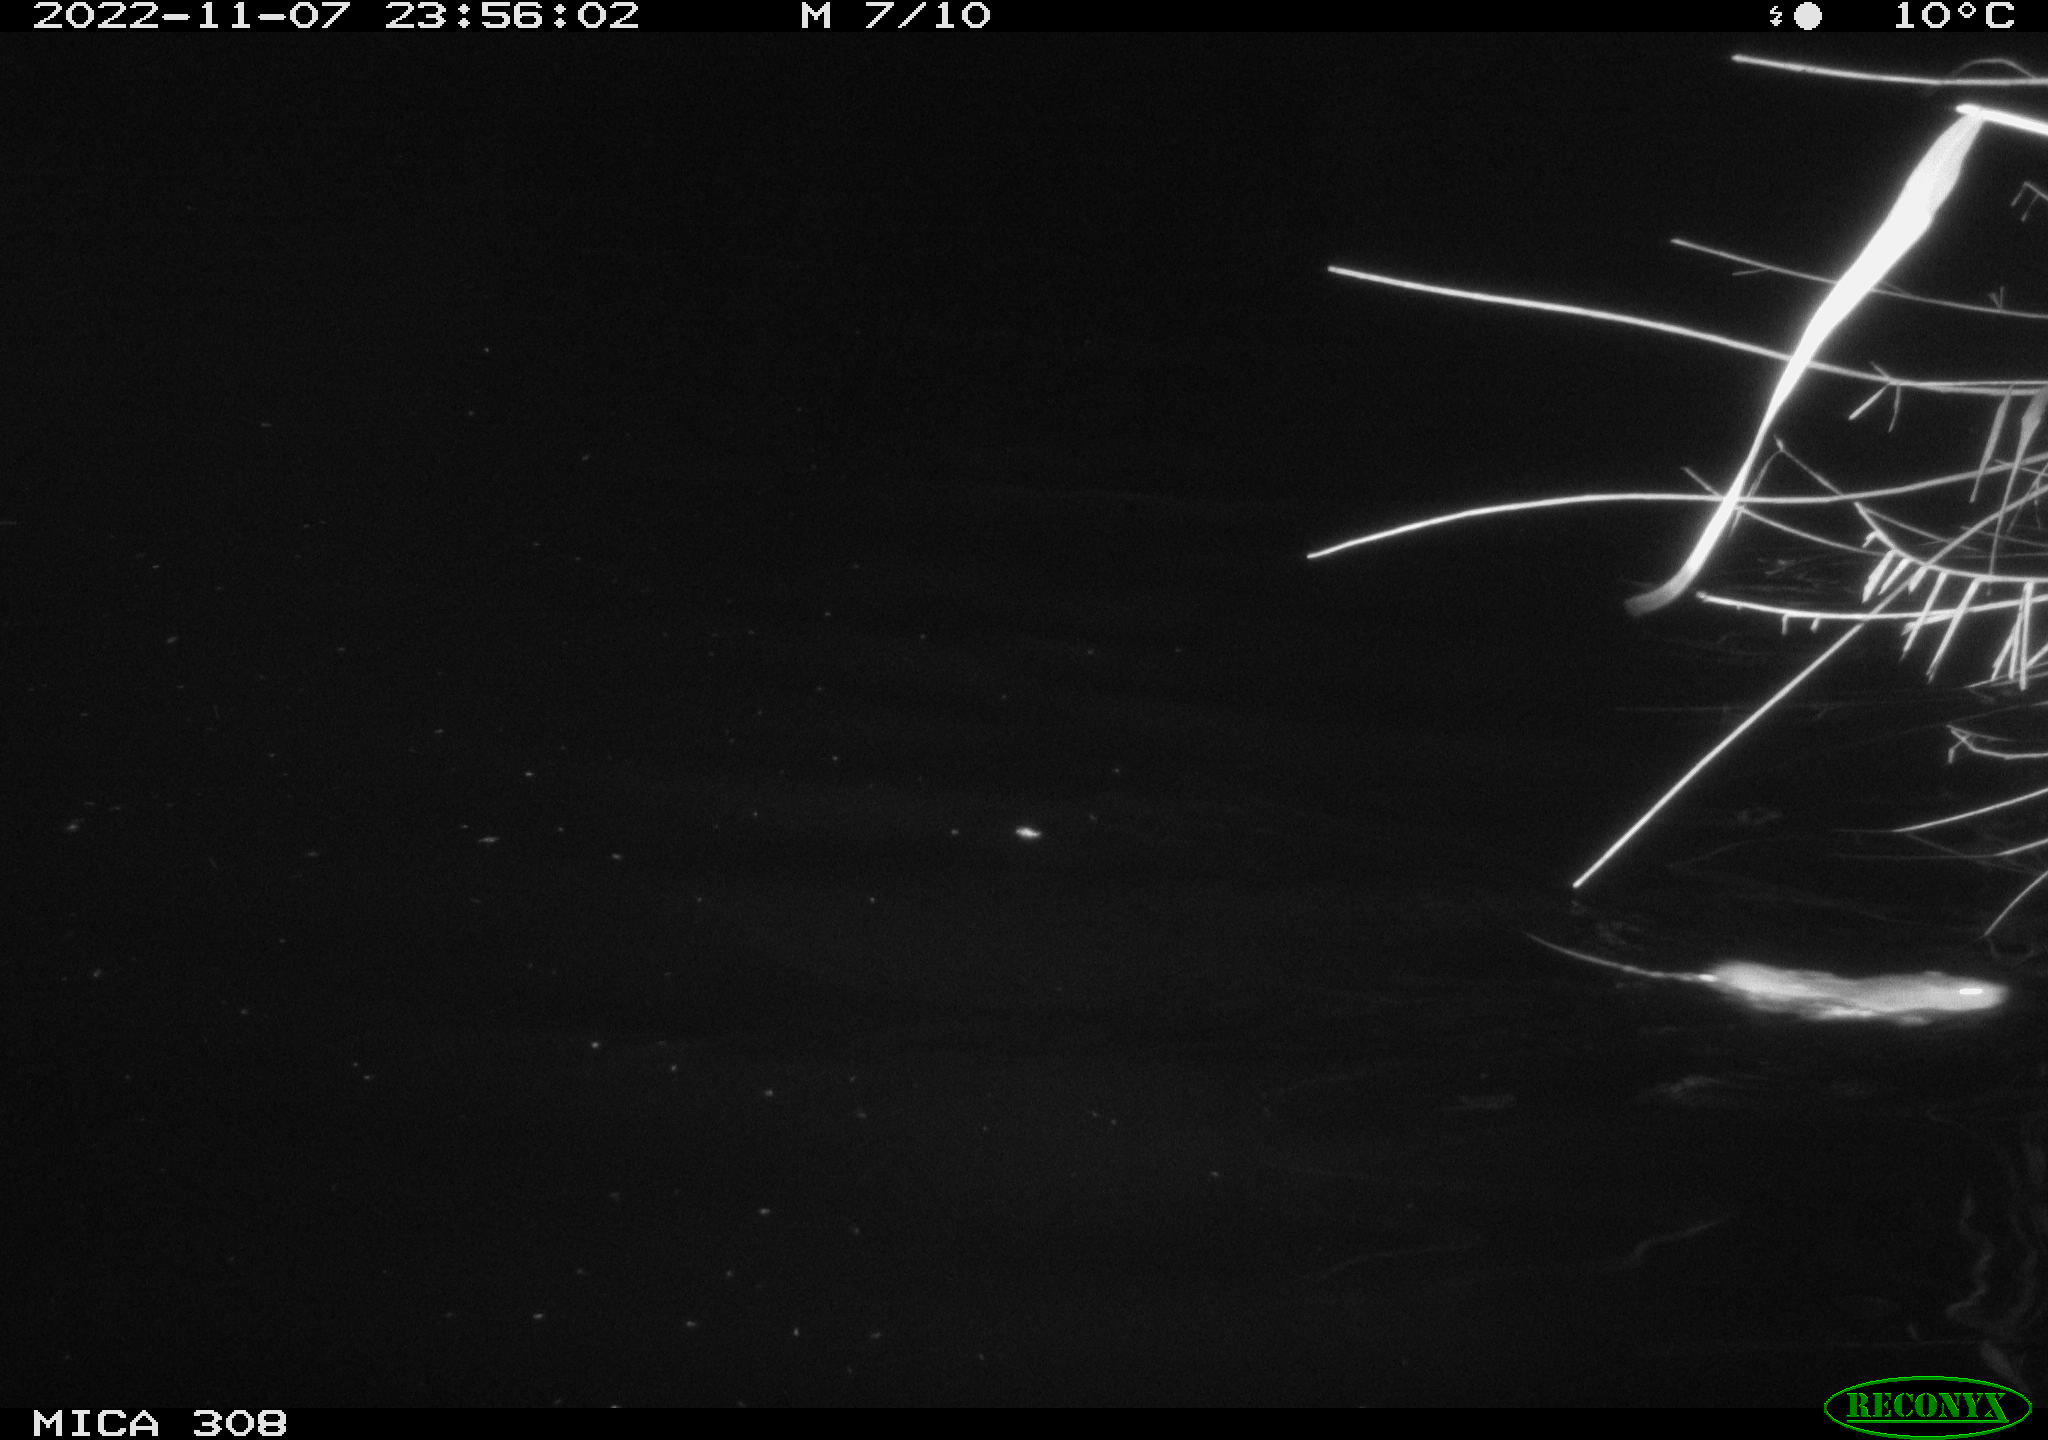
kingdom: Animalia
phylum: Chordata
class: Mammalia
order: Rodentia
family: Muridae
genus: Rattus
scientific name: Rattus norvegicus
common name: Brown rat
